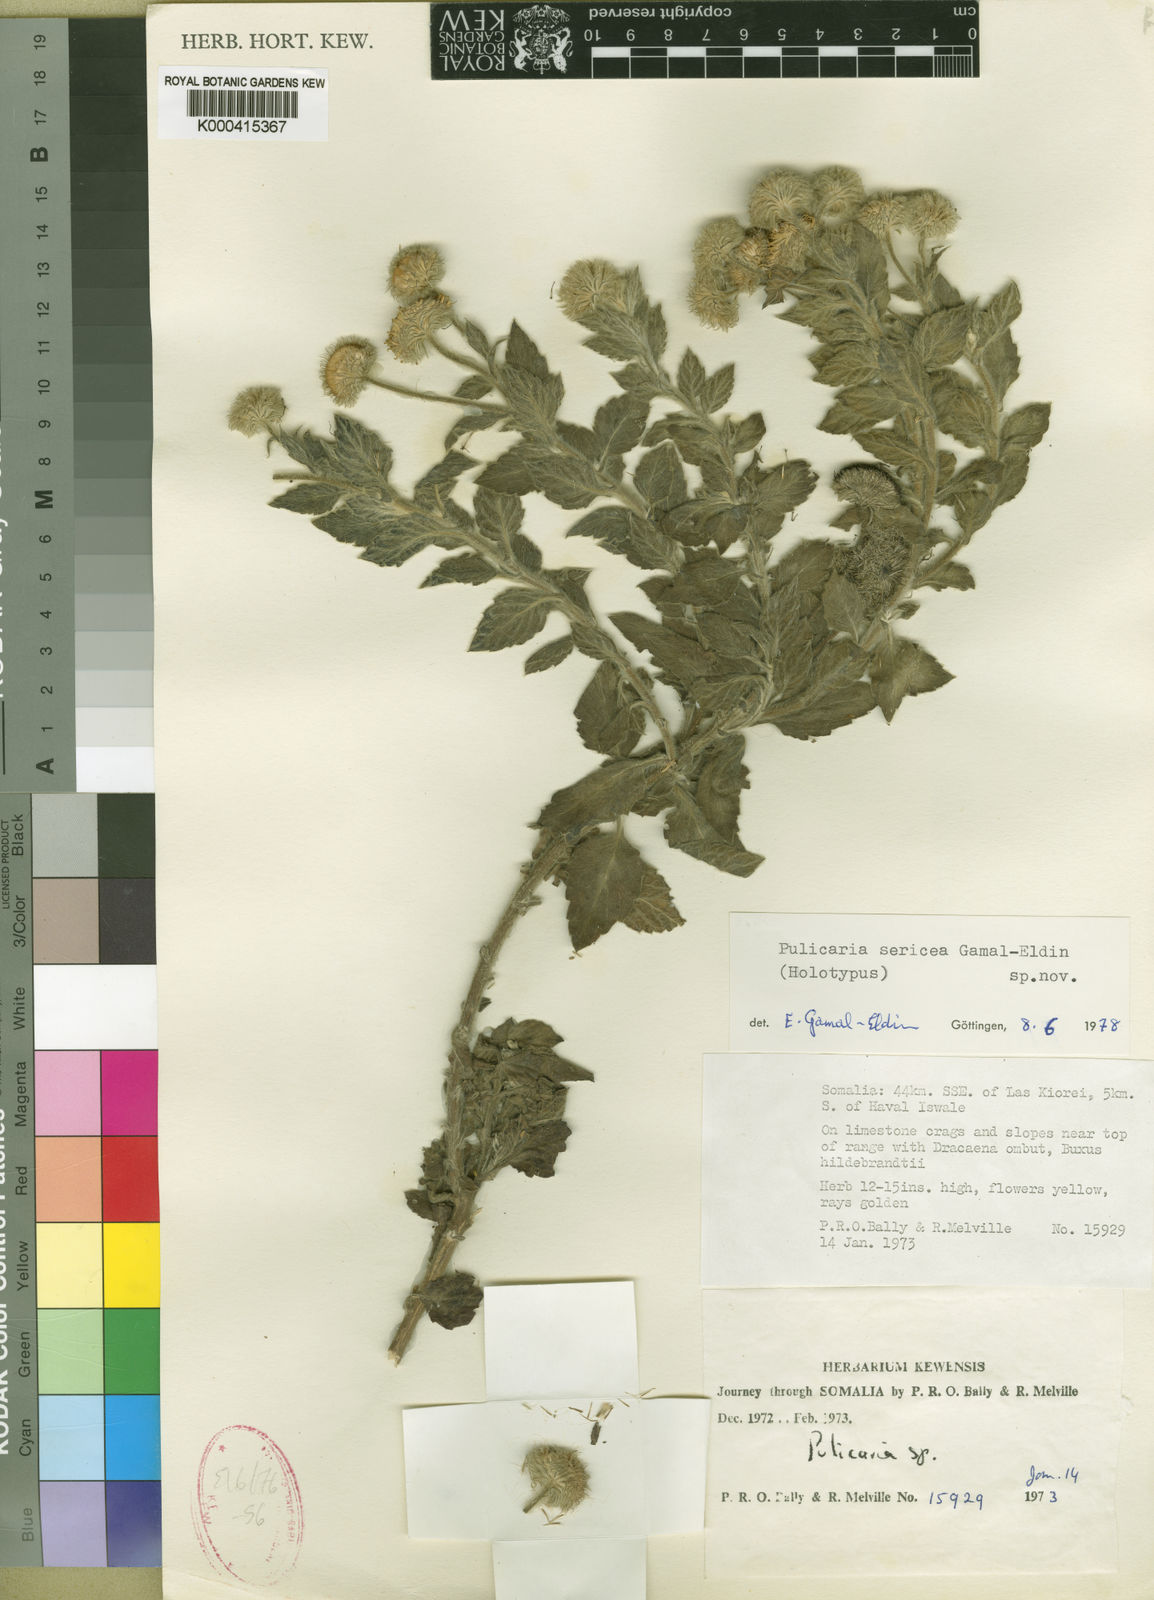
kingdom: Plantae
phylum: Tracheophyta
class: Magnoliopsida
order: Asterales
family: Asteraceae
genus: Pulicaria
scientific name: Pulicaria sericea
